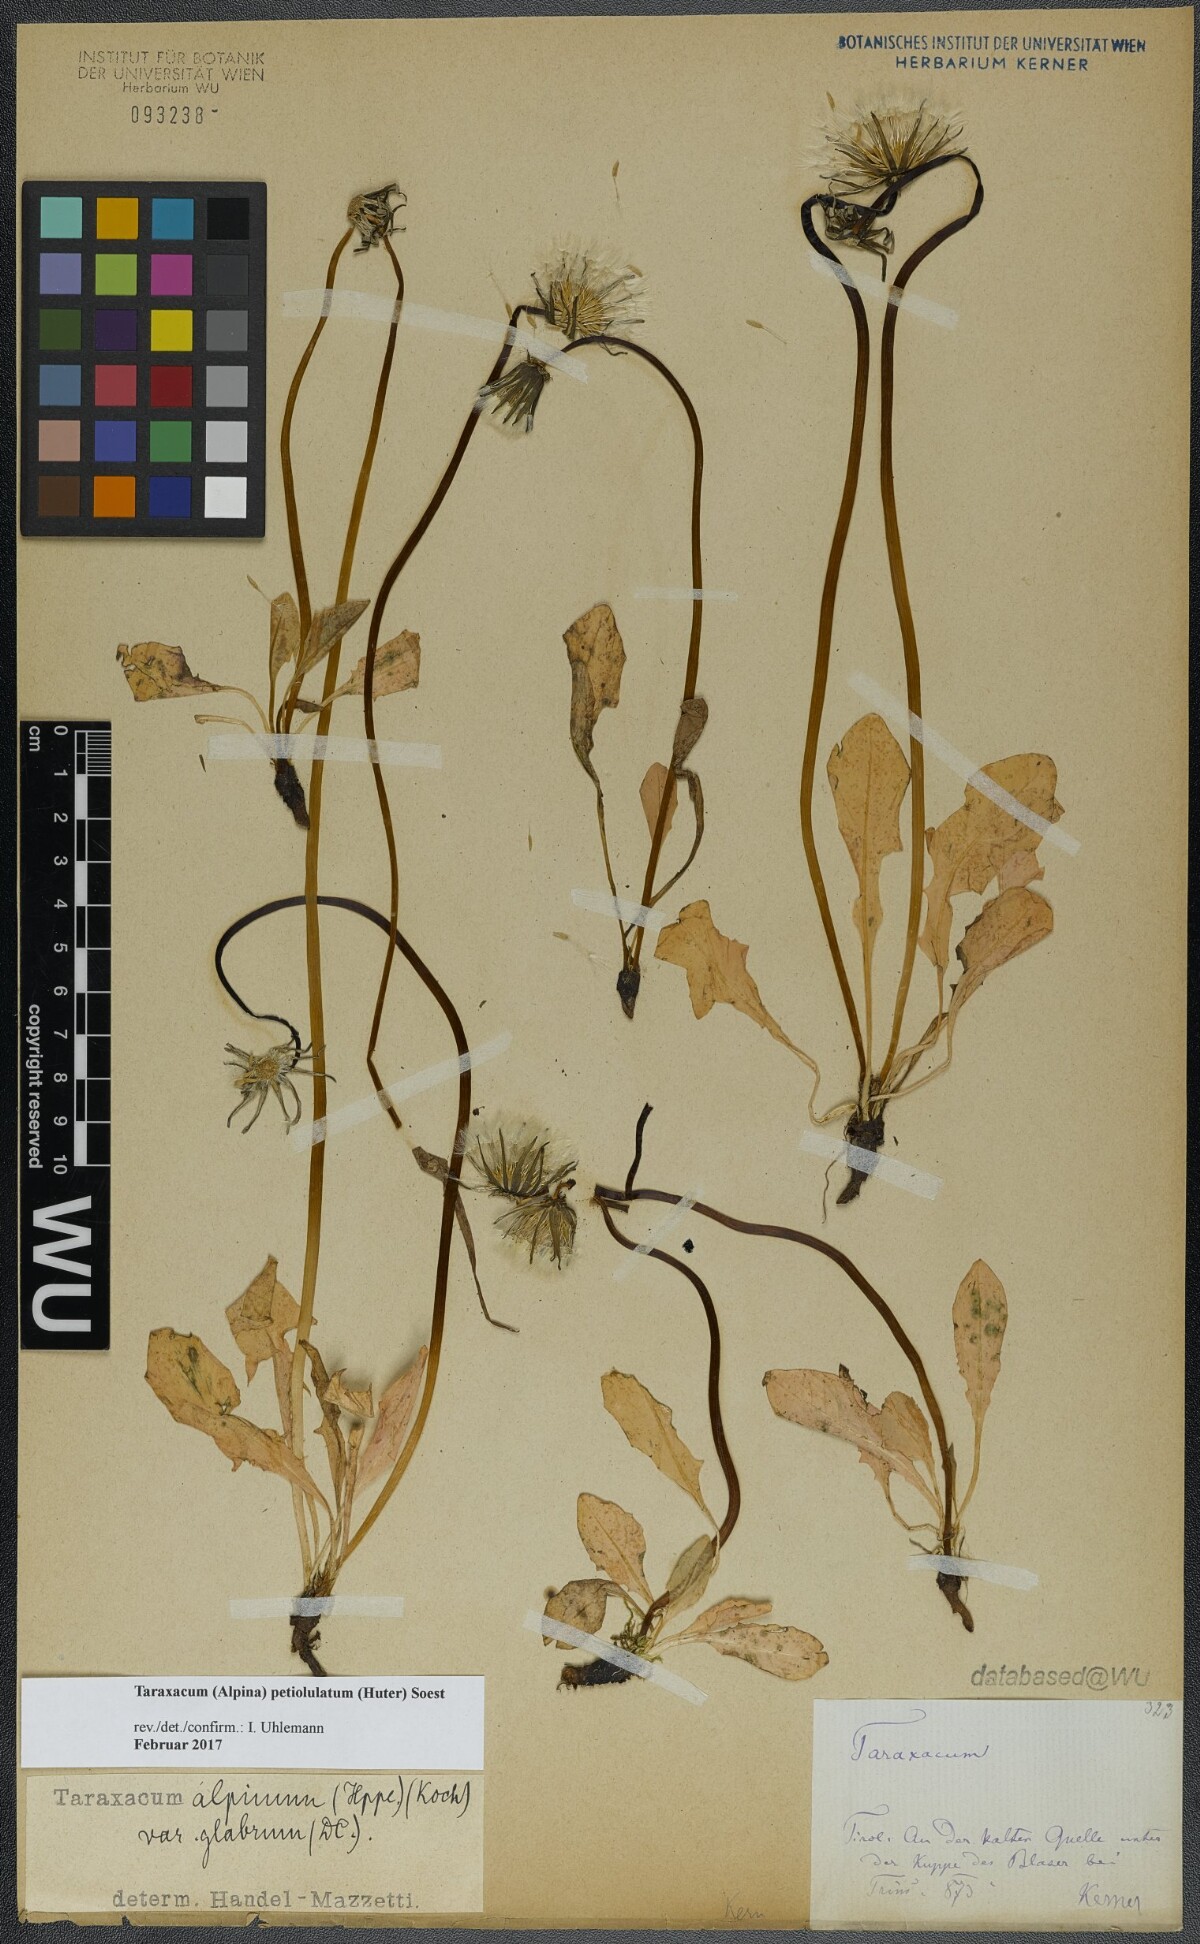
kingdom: Plantae
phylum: Tracheophyta
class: Magnoliopsida
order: Asterales
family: Asteraceae
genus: Taraxacum
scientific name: Taraxacum petiolulatum
